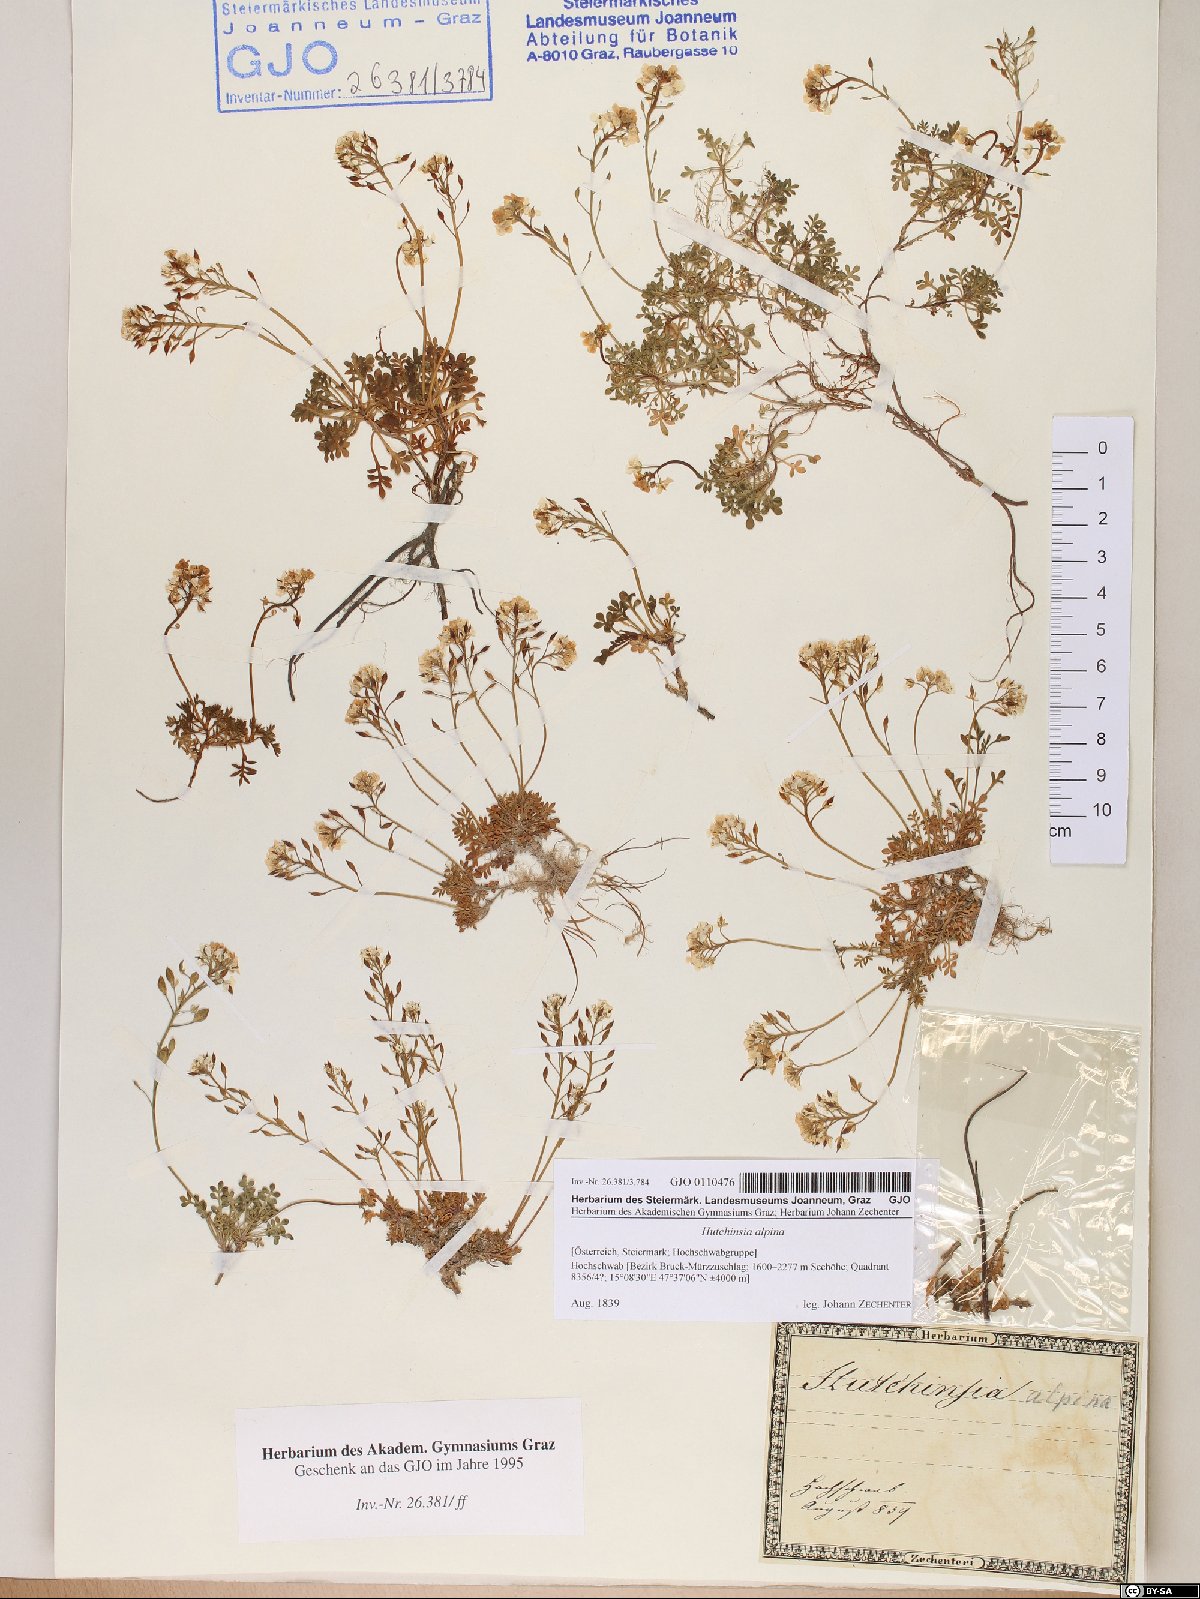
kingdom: Plantae
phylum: Tracheophyta
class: Magnoliopsida
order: Brassicales
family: Brassicaceae
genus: Hornungia
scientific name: Hornungia alpina
